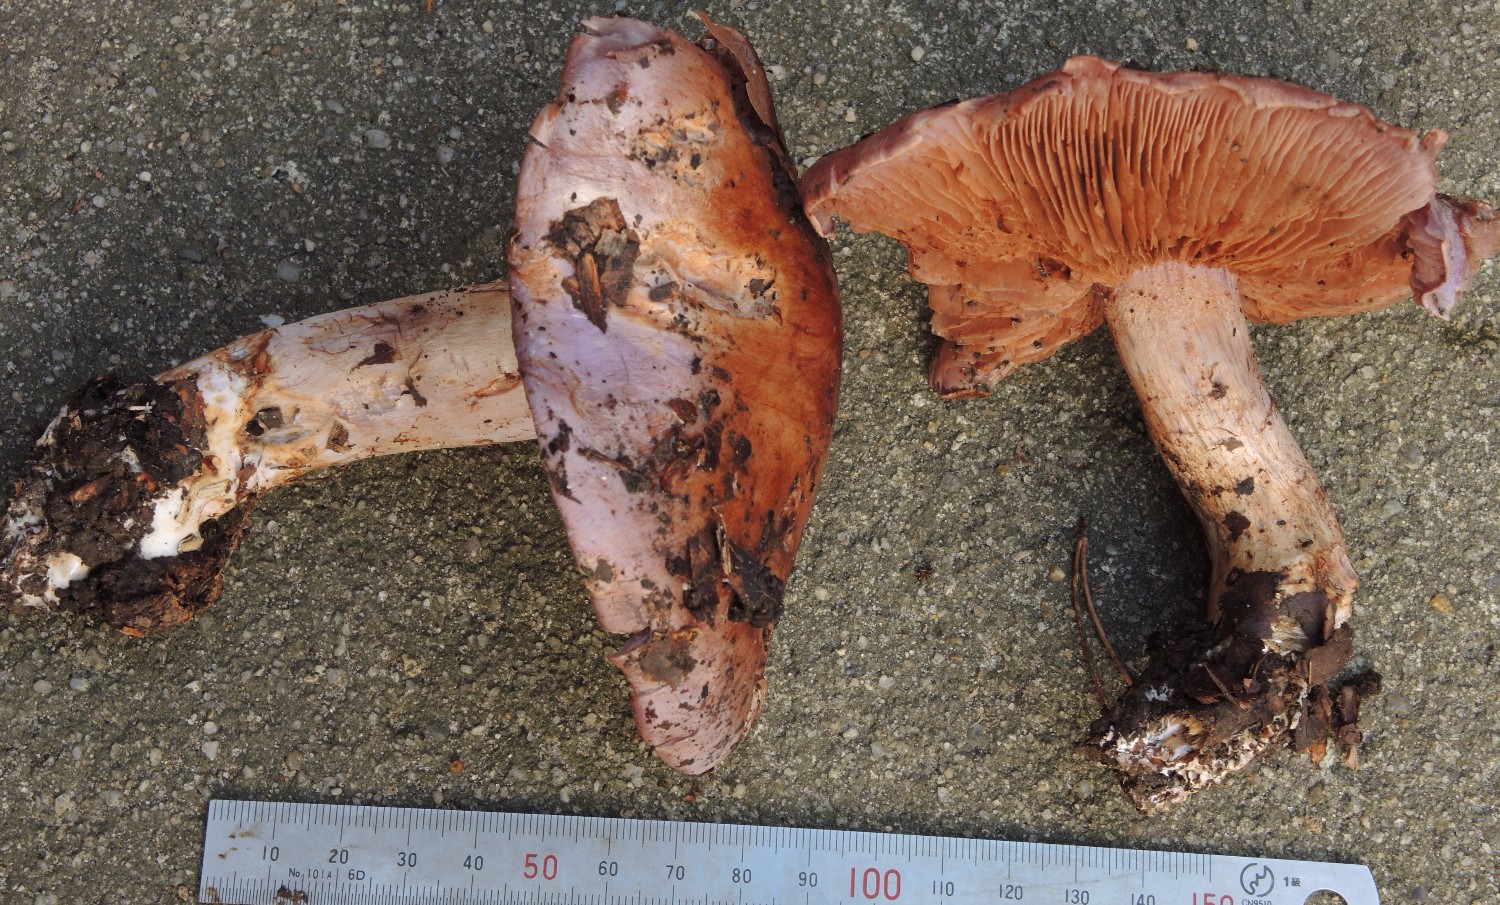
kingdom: Fungi
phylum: Basidiomycota
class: Agaricomycetes
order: Agaricales
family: Cortinariaceae
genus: Cortinarius
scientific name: Cortinarius largus
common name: violetrandet slørhat
